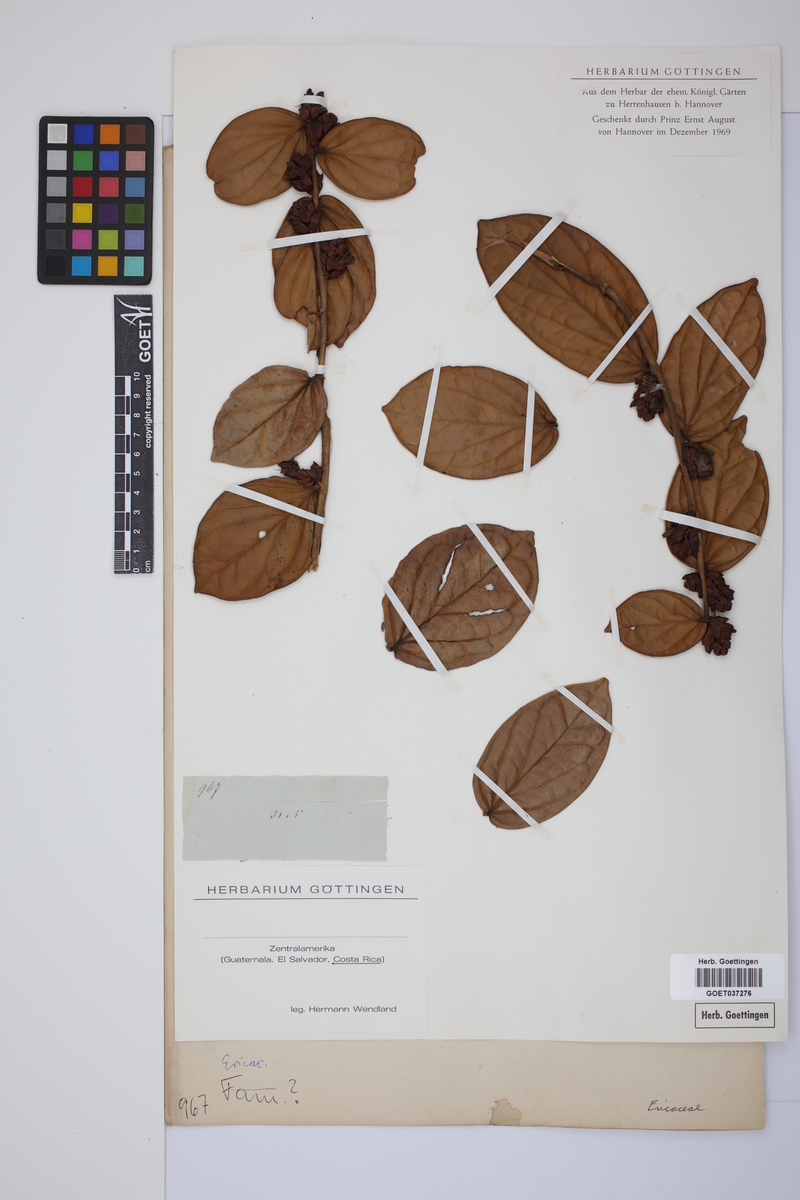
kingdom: Plantae
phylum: Tracheophyta
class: Magnoliopsida
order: Ericales
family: Ericaceae
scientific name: Ericaceae
